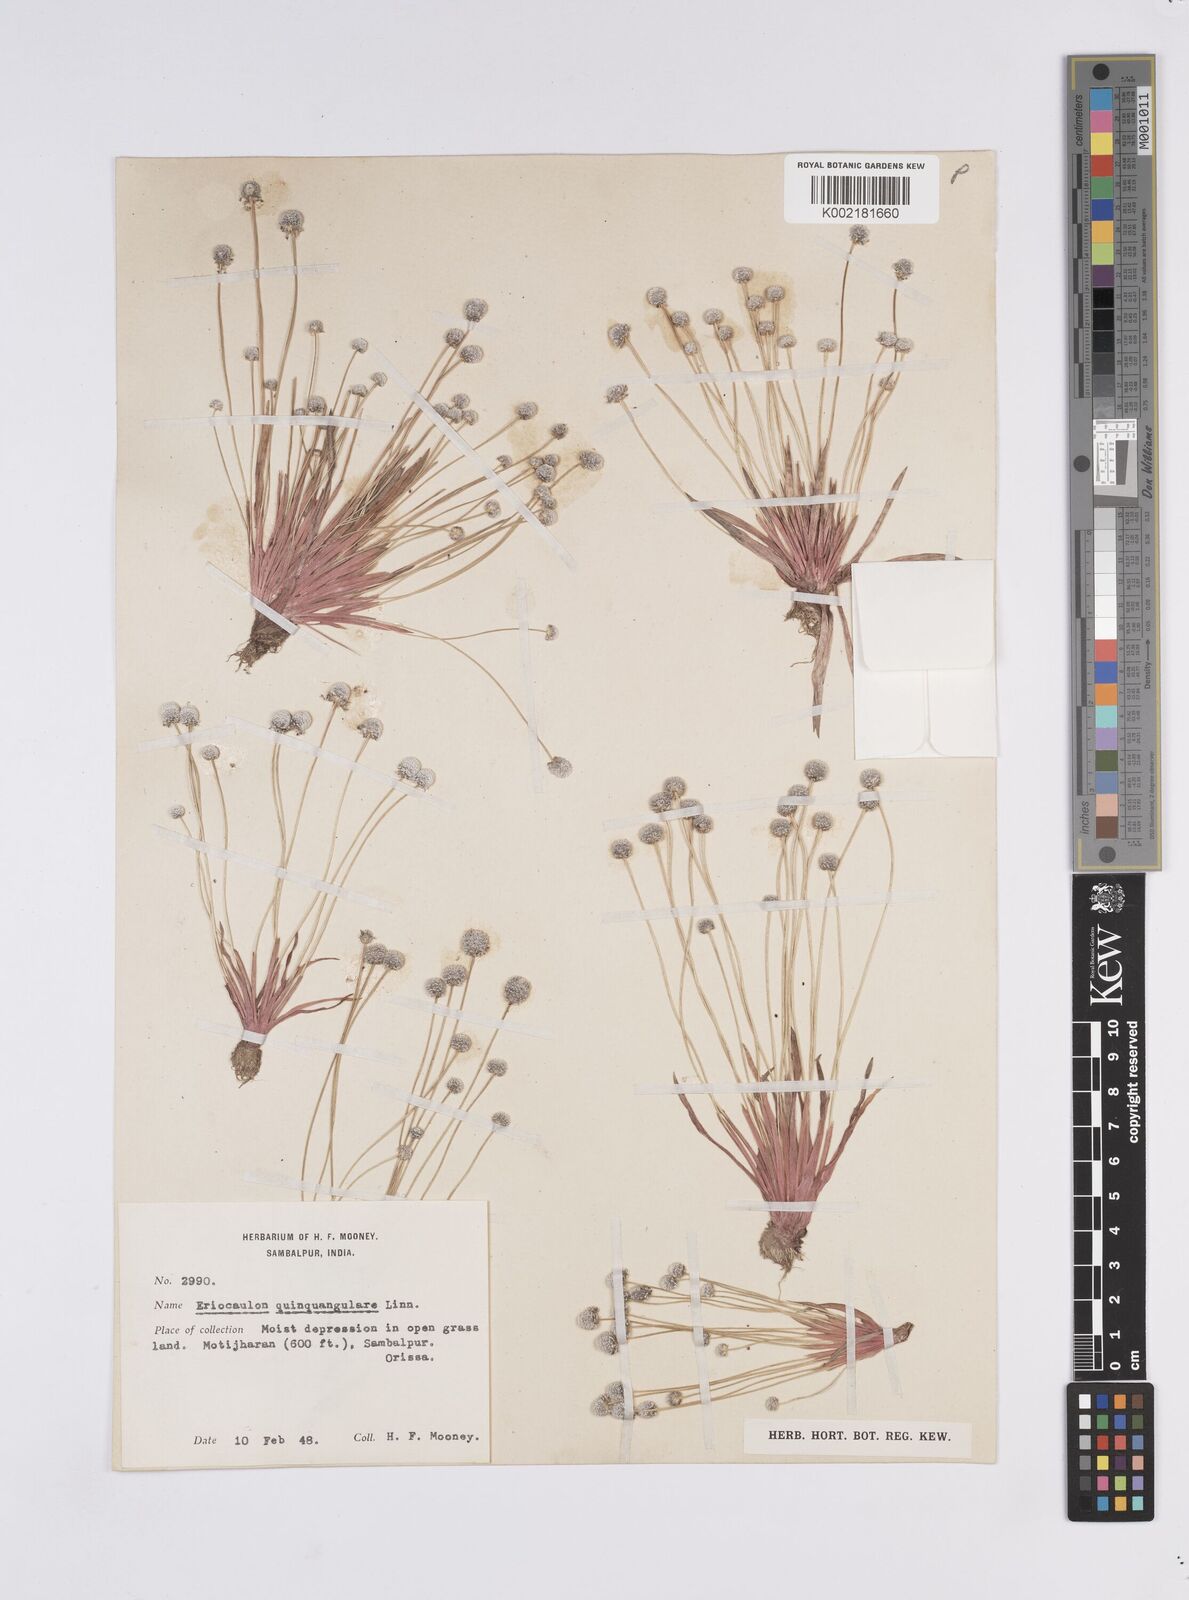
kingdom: Plantae
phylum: Tracheophyta
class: Liliopsida
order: Poales
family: Eriocaulaceae
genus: Eriocaulon
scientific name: Eriocaulon quinquangulare
